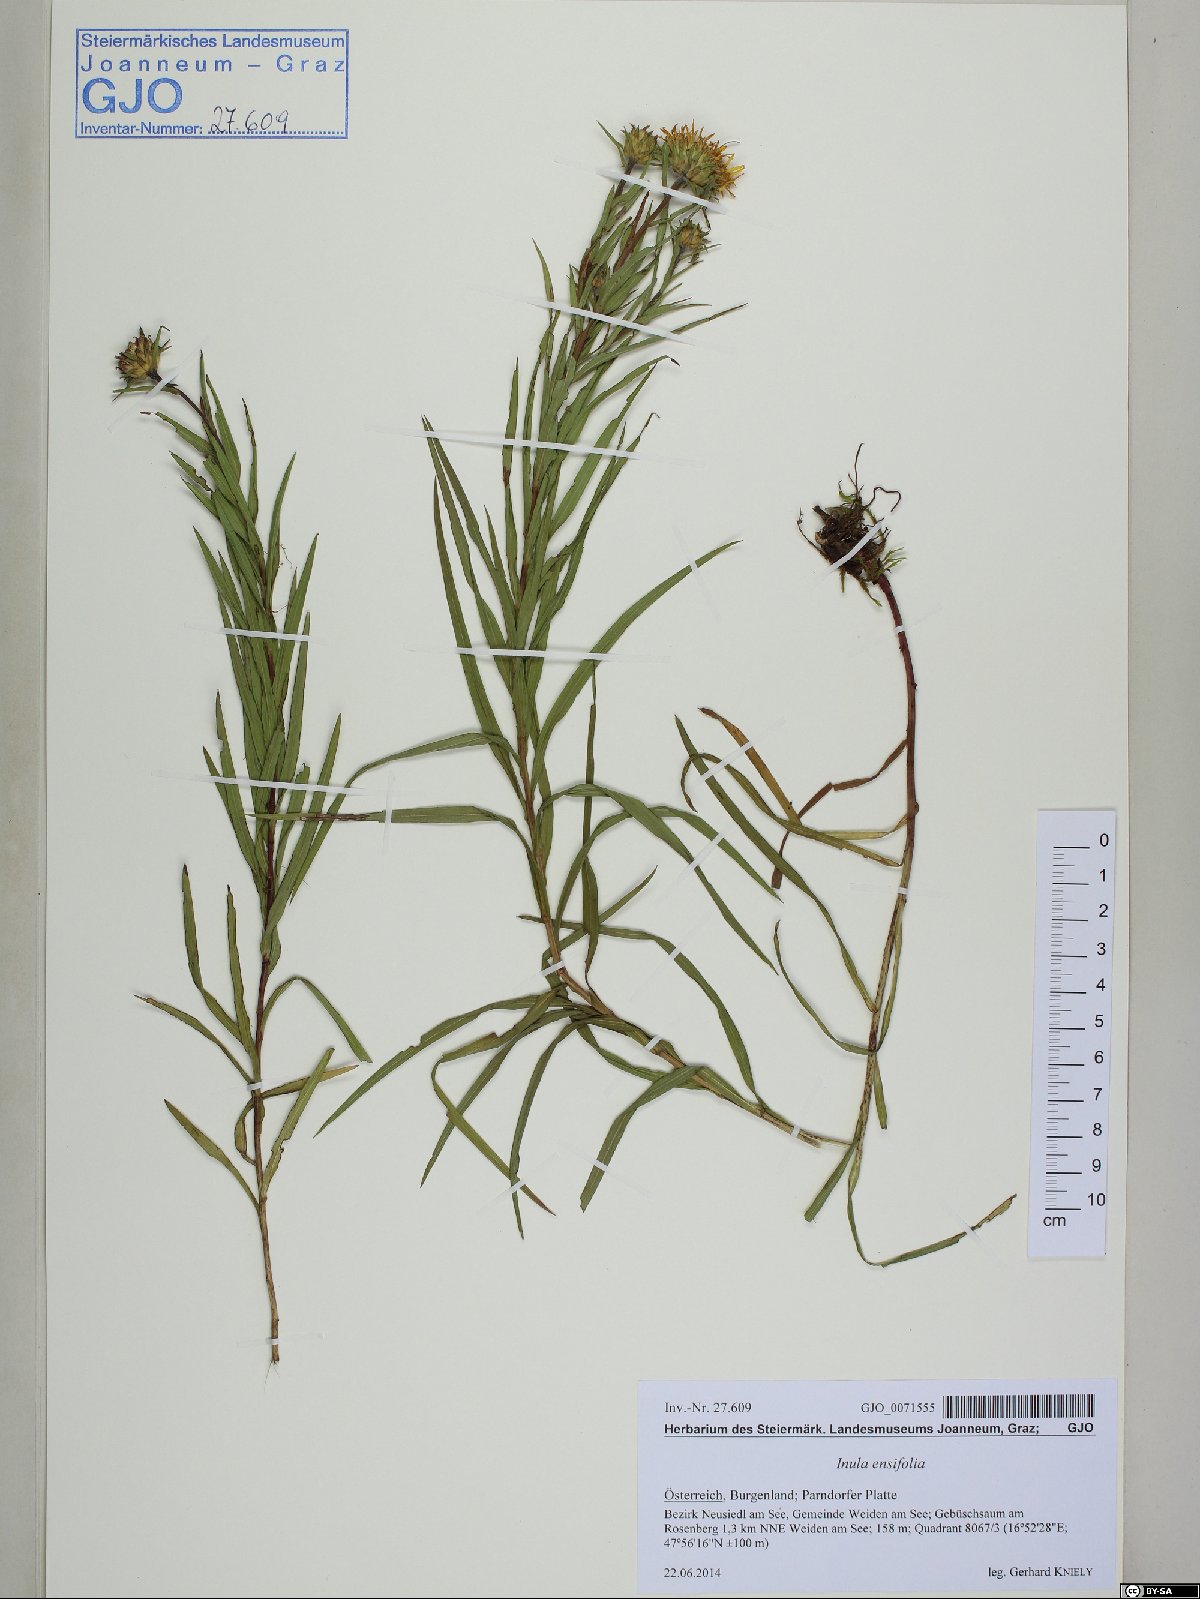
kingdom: Plantae
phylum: Tracheophyta
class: Magnoliopsida
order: Asterales
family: Asteraceae
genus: Pentanema
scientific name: Pentanema ensifolium
